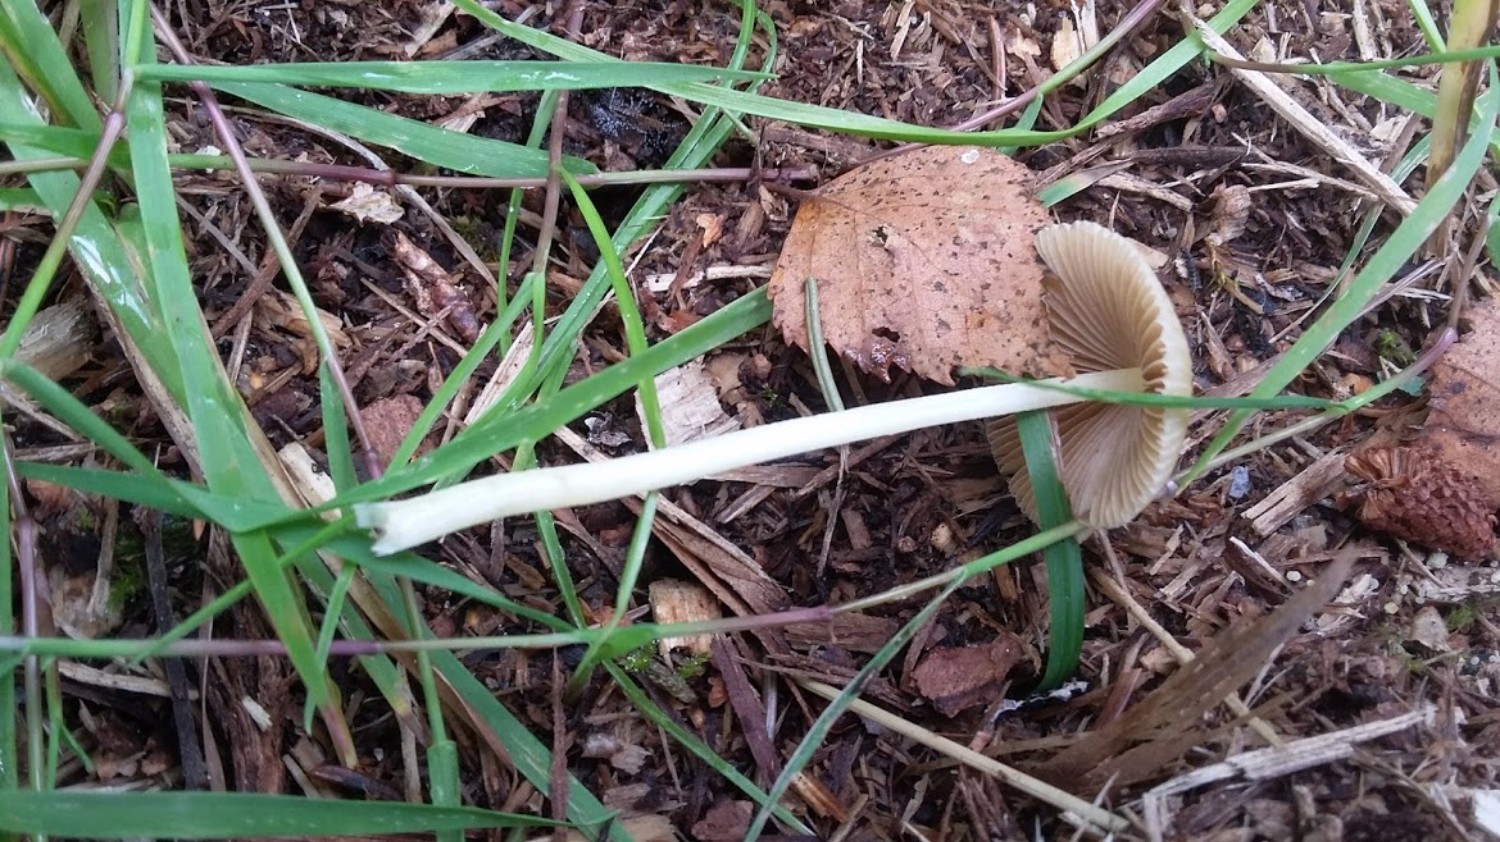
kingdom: Fungi
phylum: Basidiomycota
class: Agaricomycetes
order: Agaricales
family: Bolbitiaceae
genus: Bolbitius
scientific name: Bolbitius titubans
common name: almindelig gulhat
